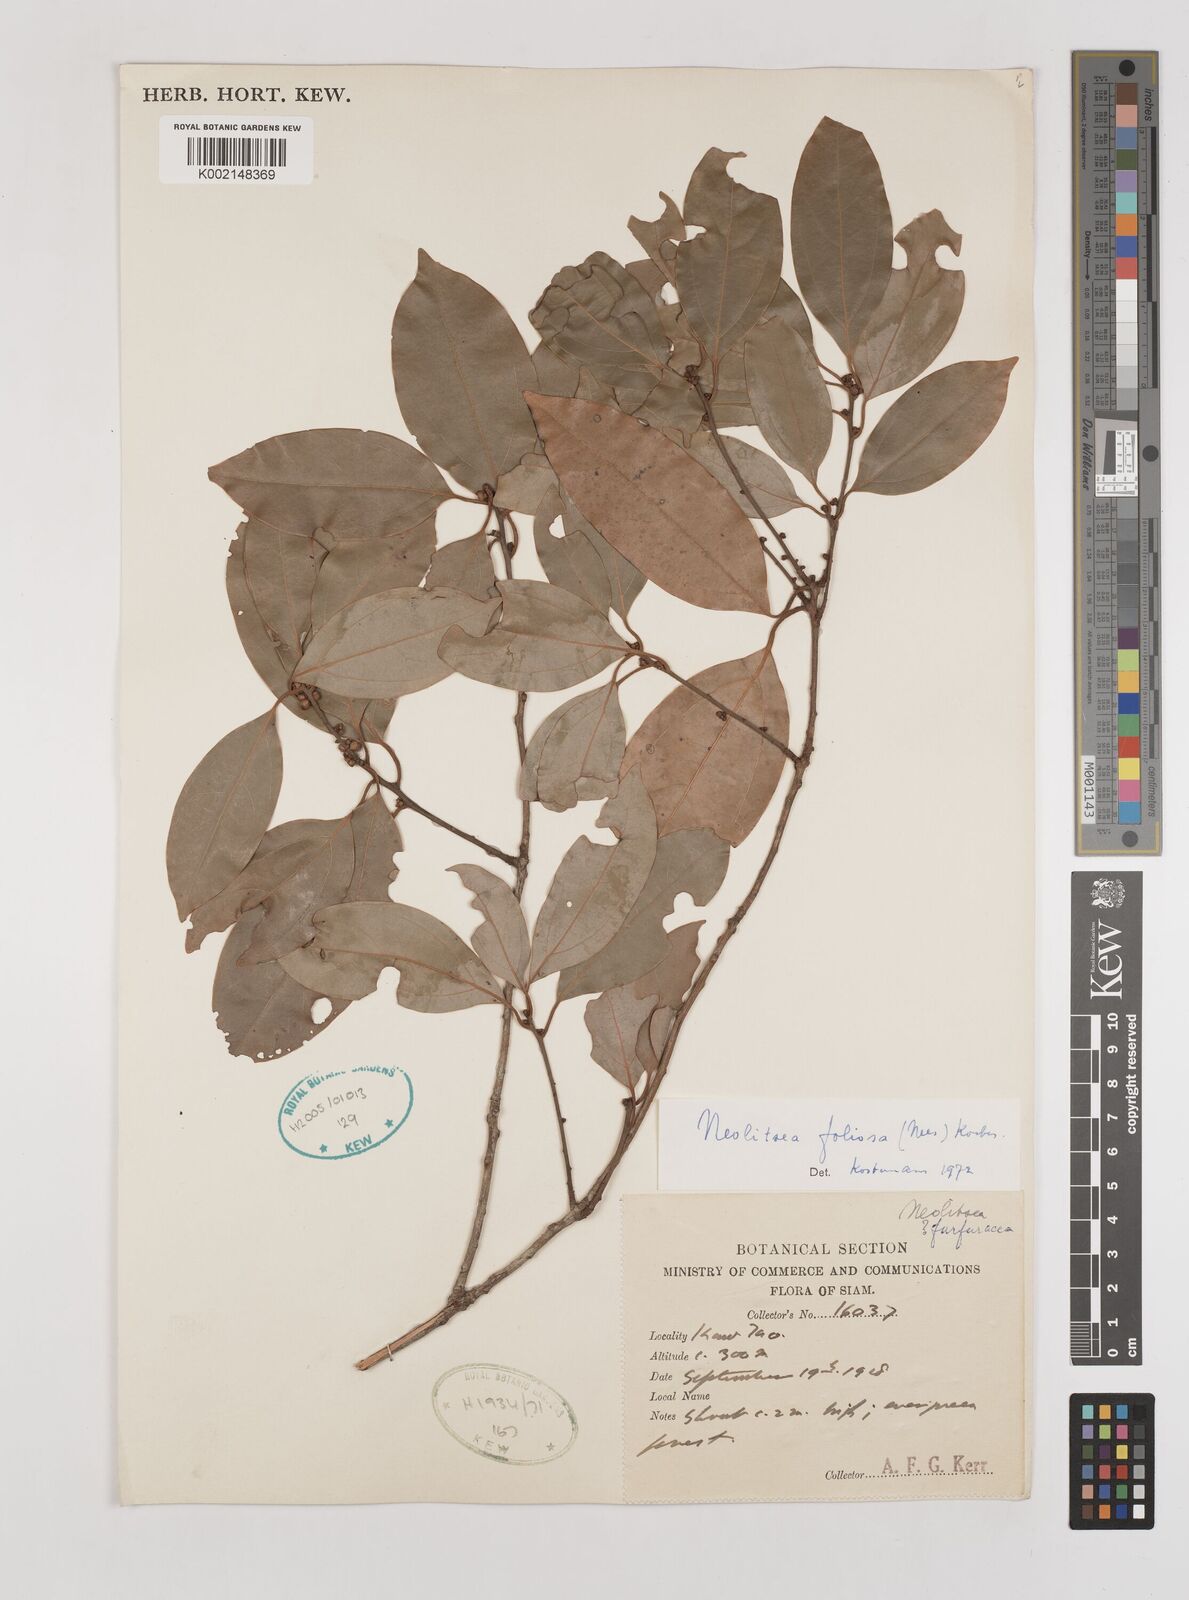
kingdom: Plantae
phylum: Tracheophyta
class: Magnoliopsida
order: Laurales
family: Lauraceae
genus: Neolitsea
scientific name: Neolitsea foliosa
